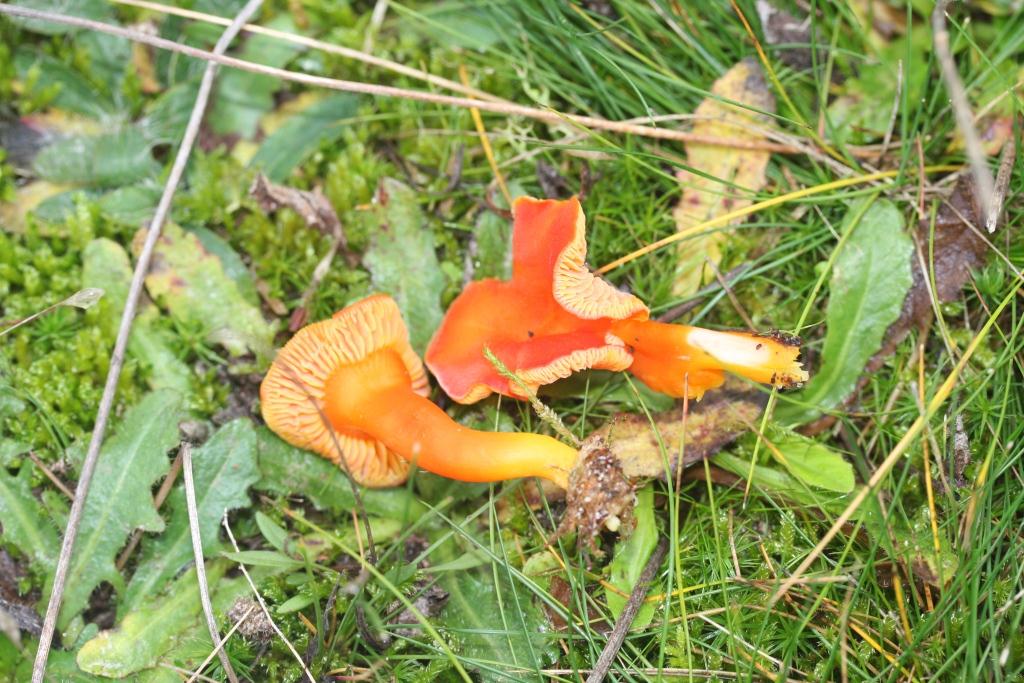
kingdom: Fungi
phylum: Basidiomycota
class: Agaricomycetes
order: Agaricales
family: Hygrophoraceae
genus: Hygrocybe
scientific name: Hygrocybe miniata
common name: mønje-vokshat
